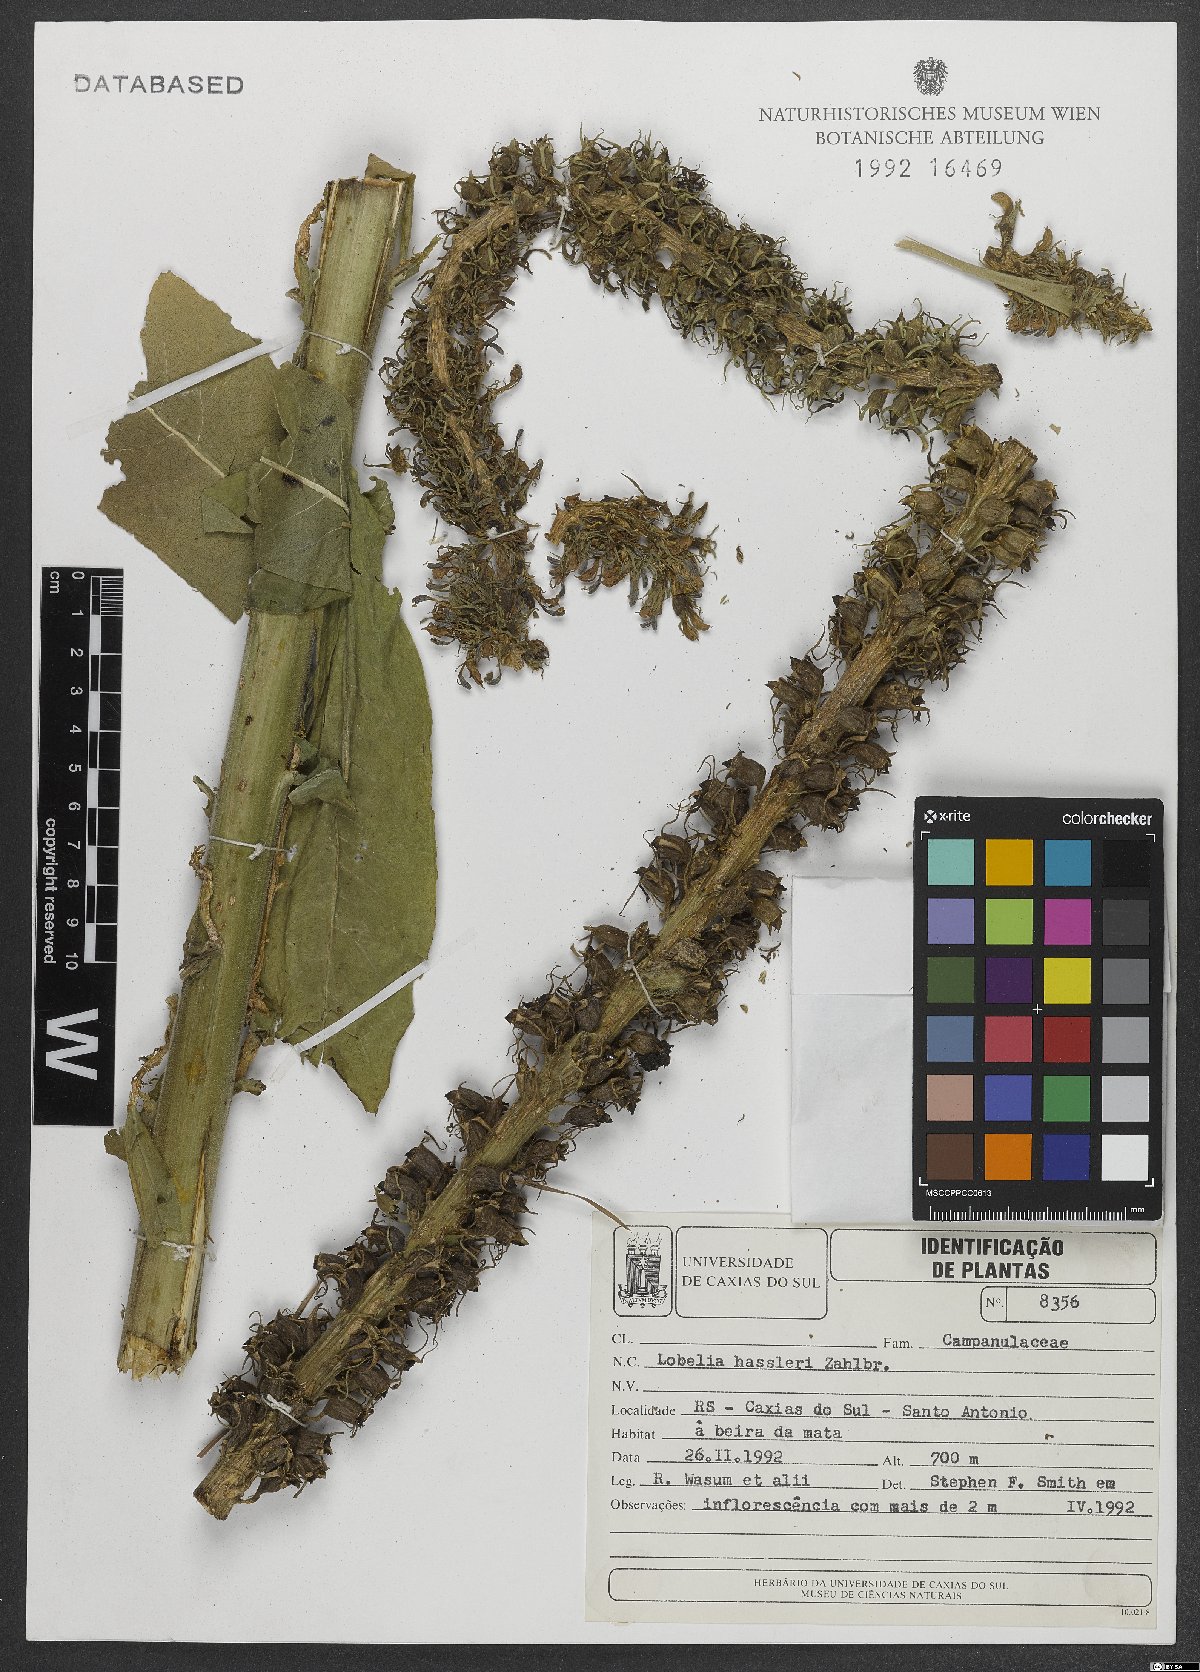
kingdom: Plantae
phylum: Tracheophyta
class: Magnoliopsida
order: Asterales
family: Campanulaceae
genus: Lobelia
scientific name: Lobelia hassleri
